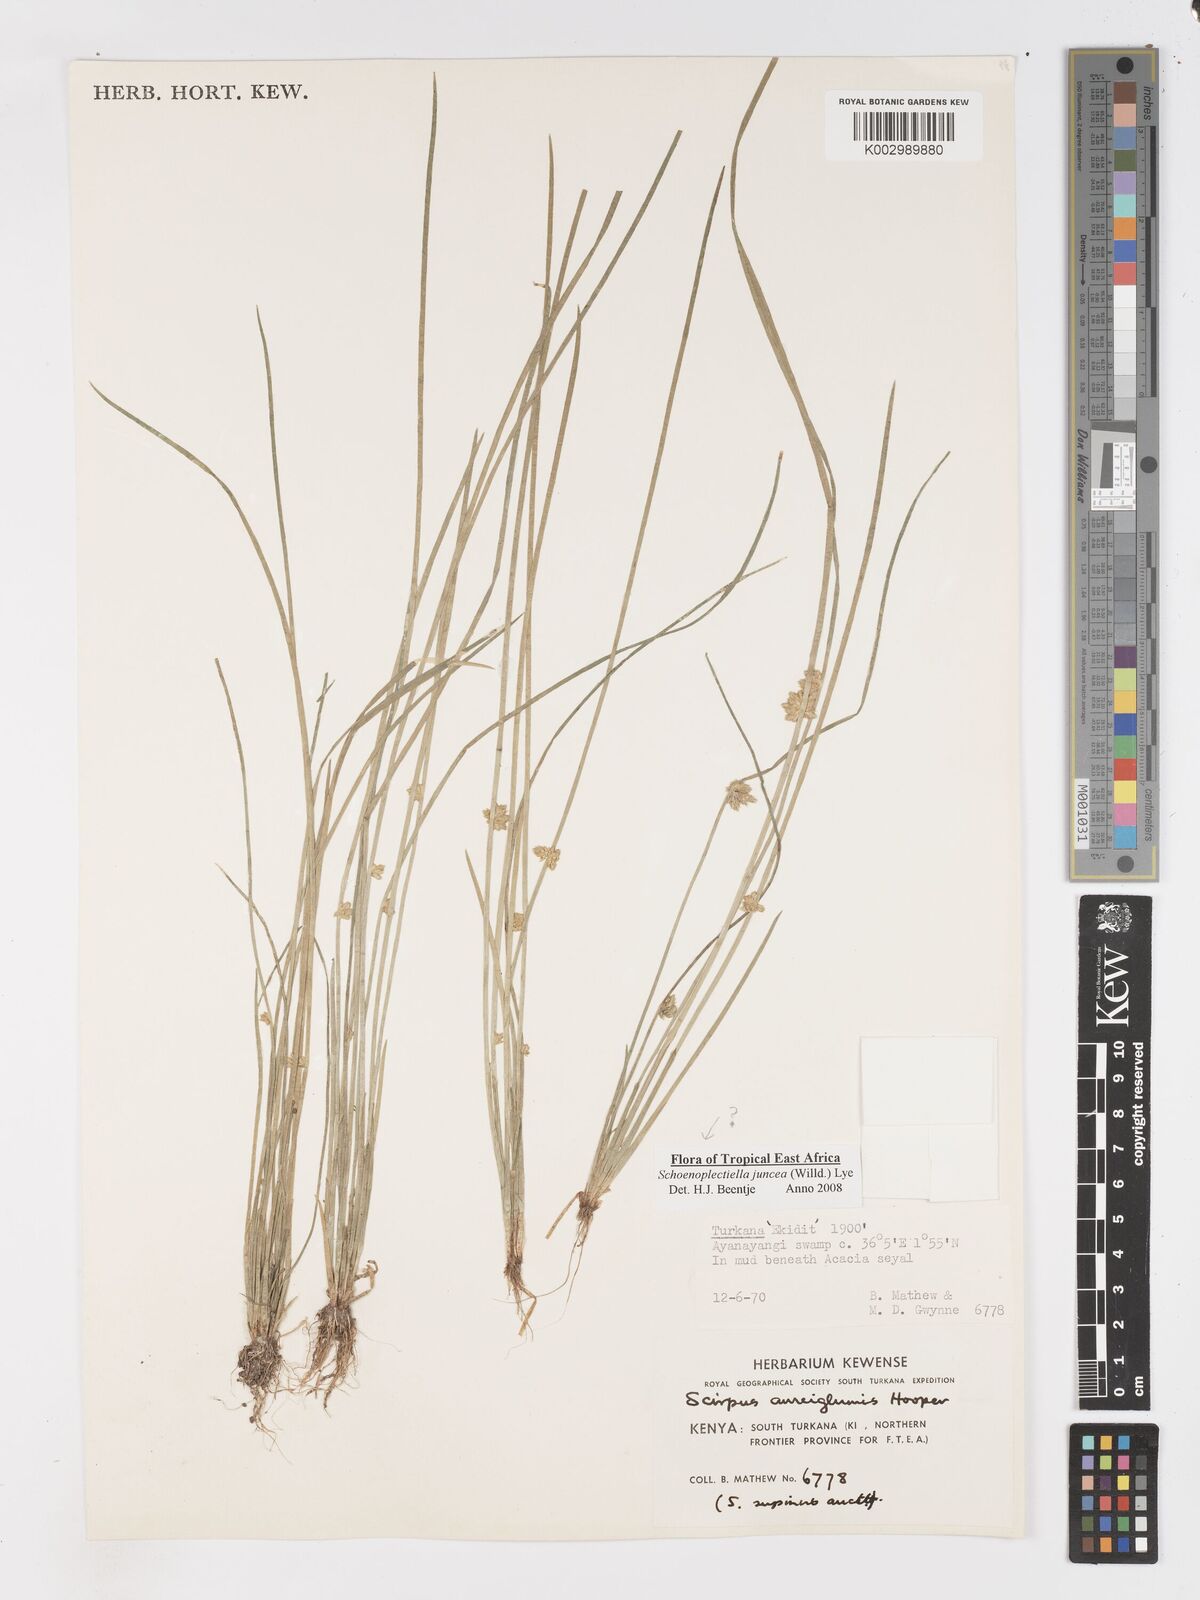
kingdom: Plantae
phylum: Tracheophyta
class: Liliopsida
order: Poales
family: Cyperaceae
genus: Schoenoplectiella
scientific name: Schoenoplectiella juncea
